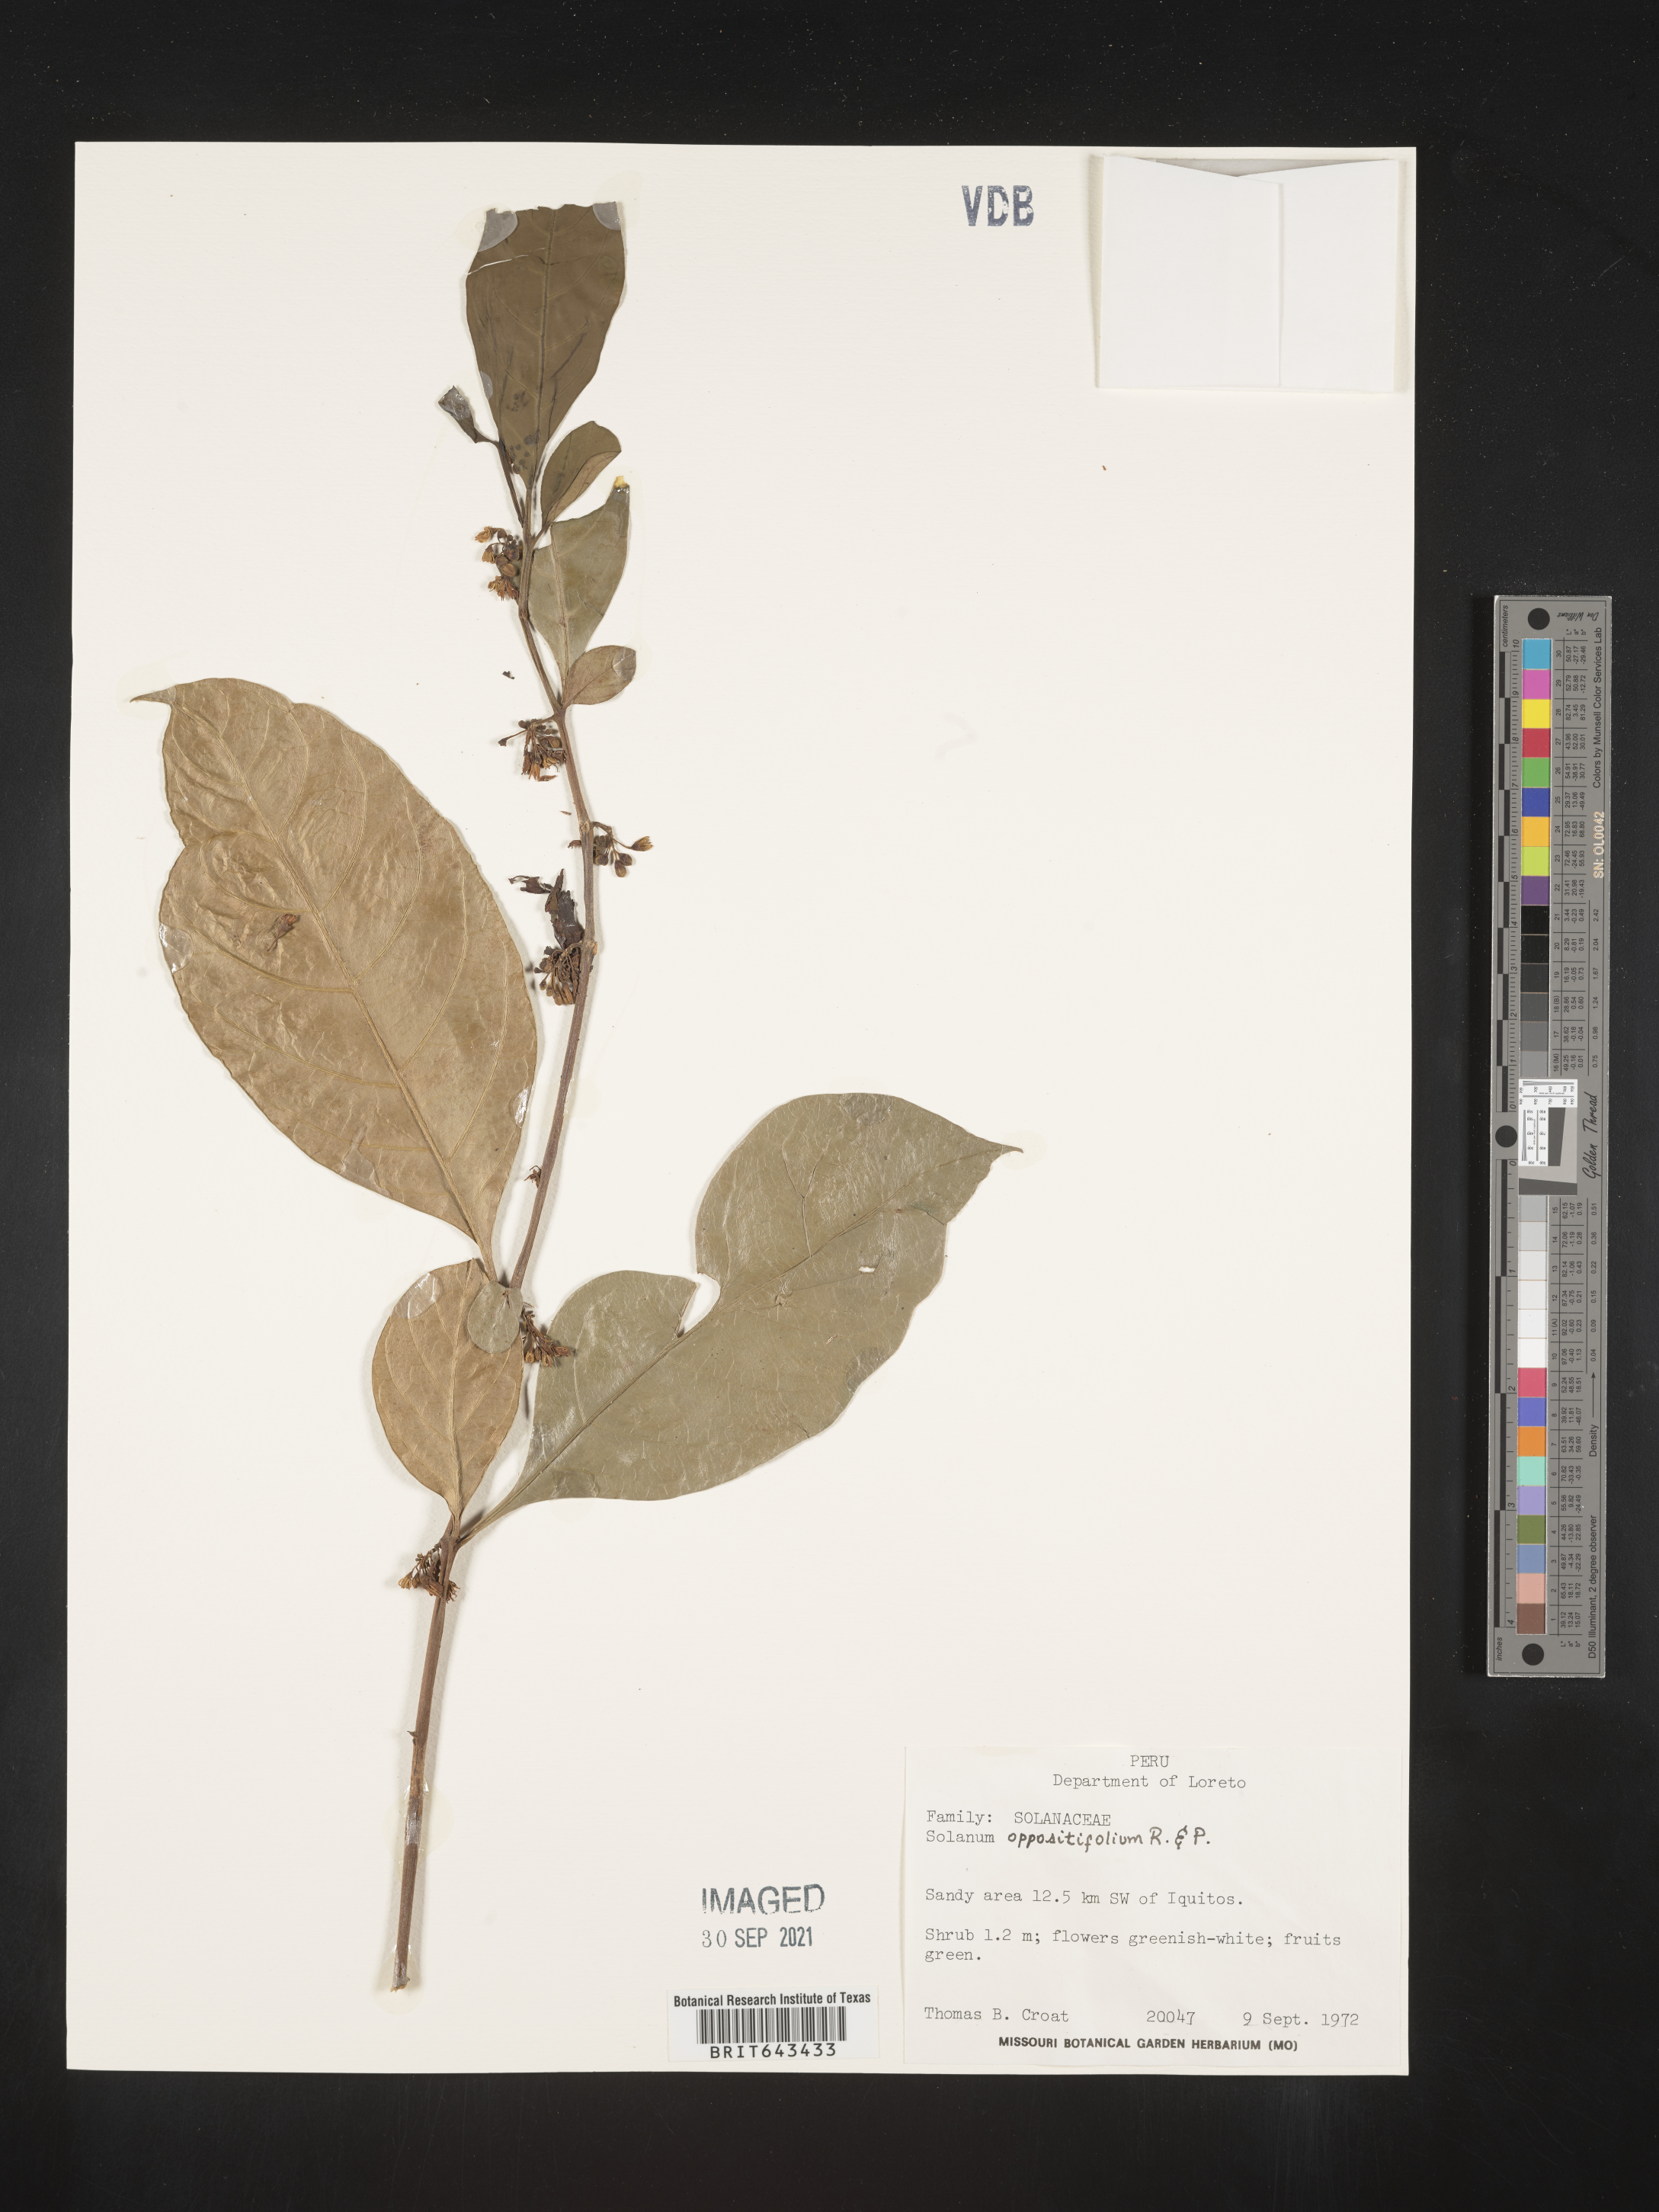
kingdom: Plantae
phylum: Tracheophyta
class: Magnoliopsida
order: Solanales
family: Solanaceae
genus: Solanum
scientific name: Solanum
